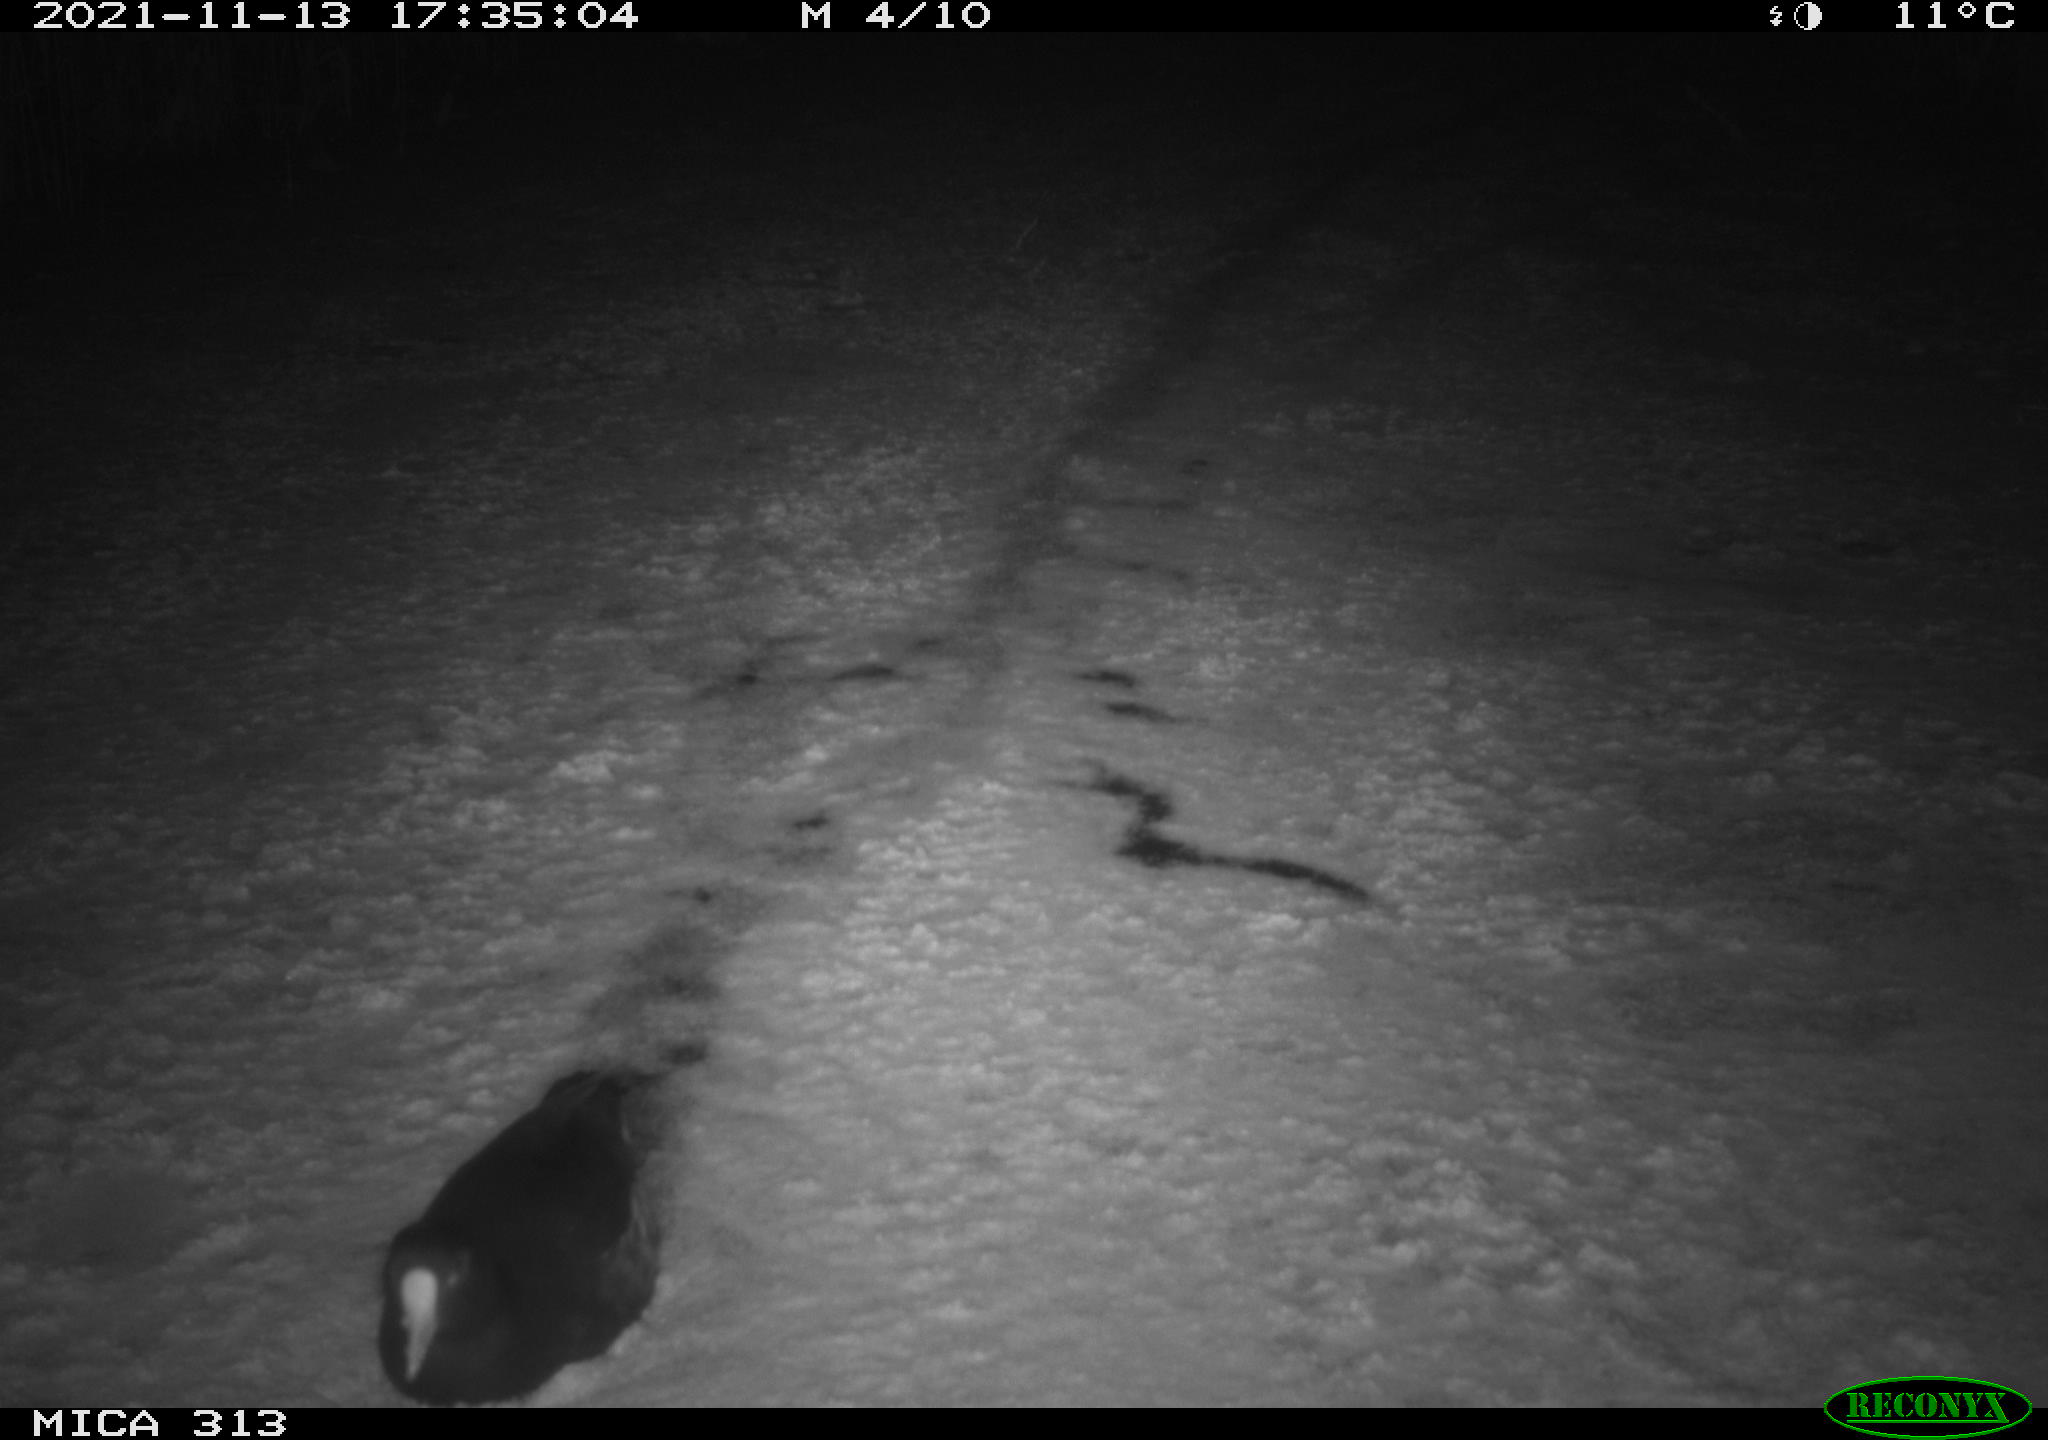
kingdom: Animalia
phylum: Chordata
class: Aves
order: Gruiformes
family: Rallidae
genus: Gallinula
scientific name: Gallinula chloropus
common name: Common moorhen
